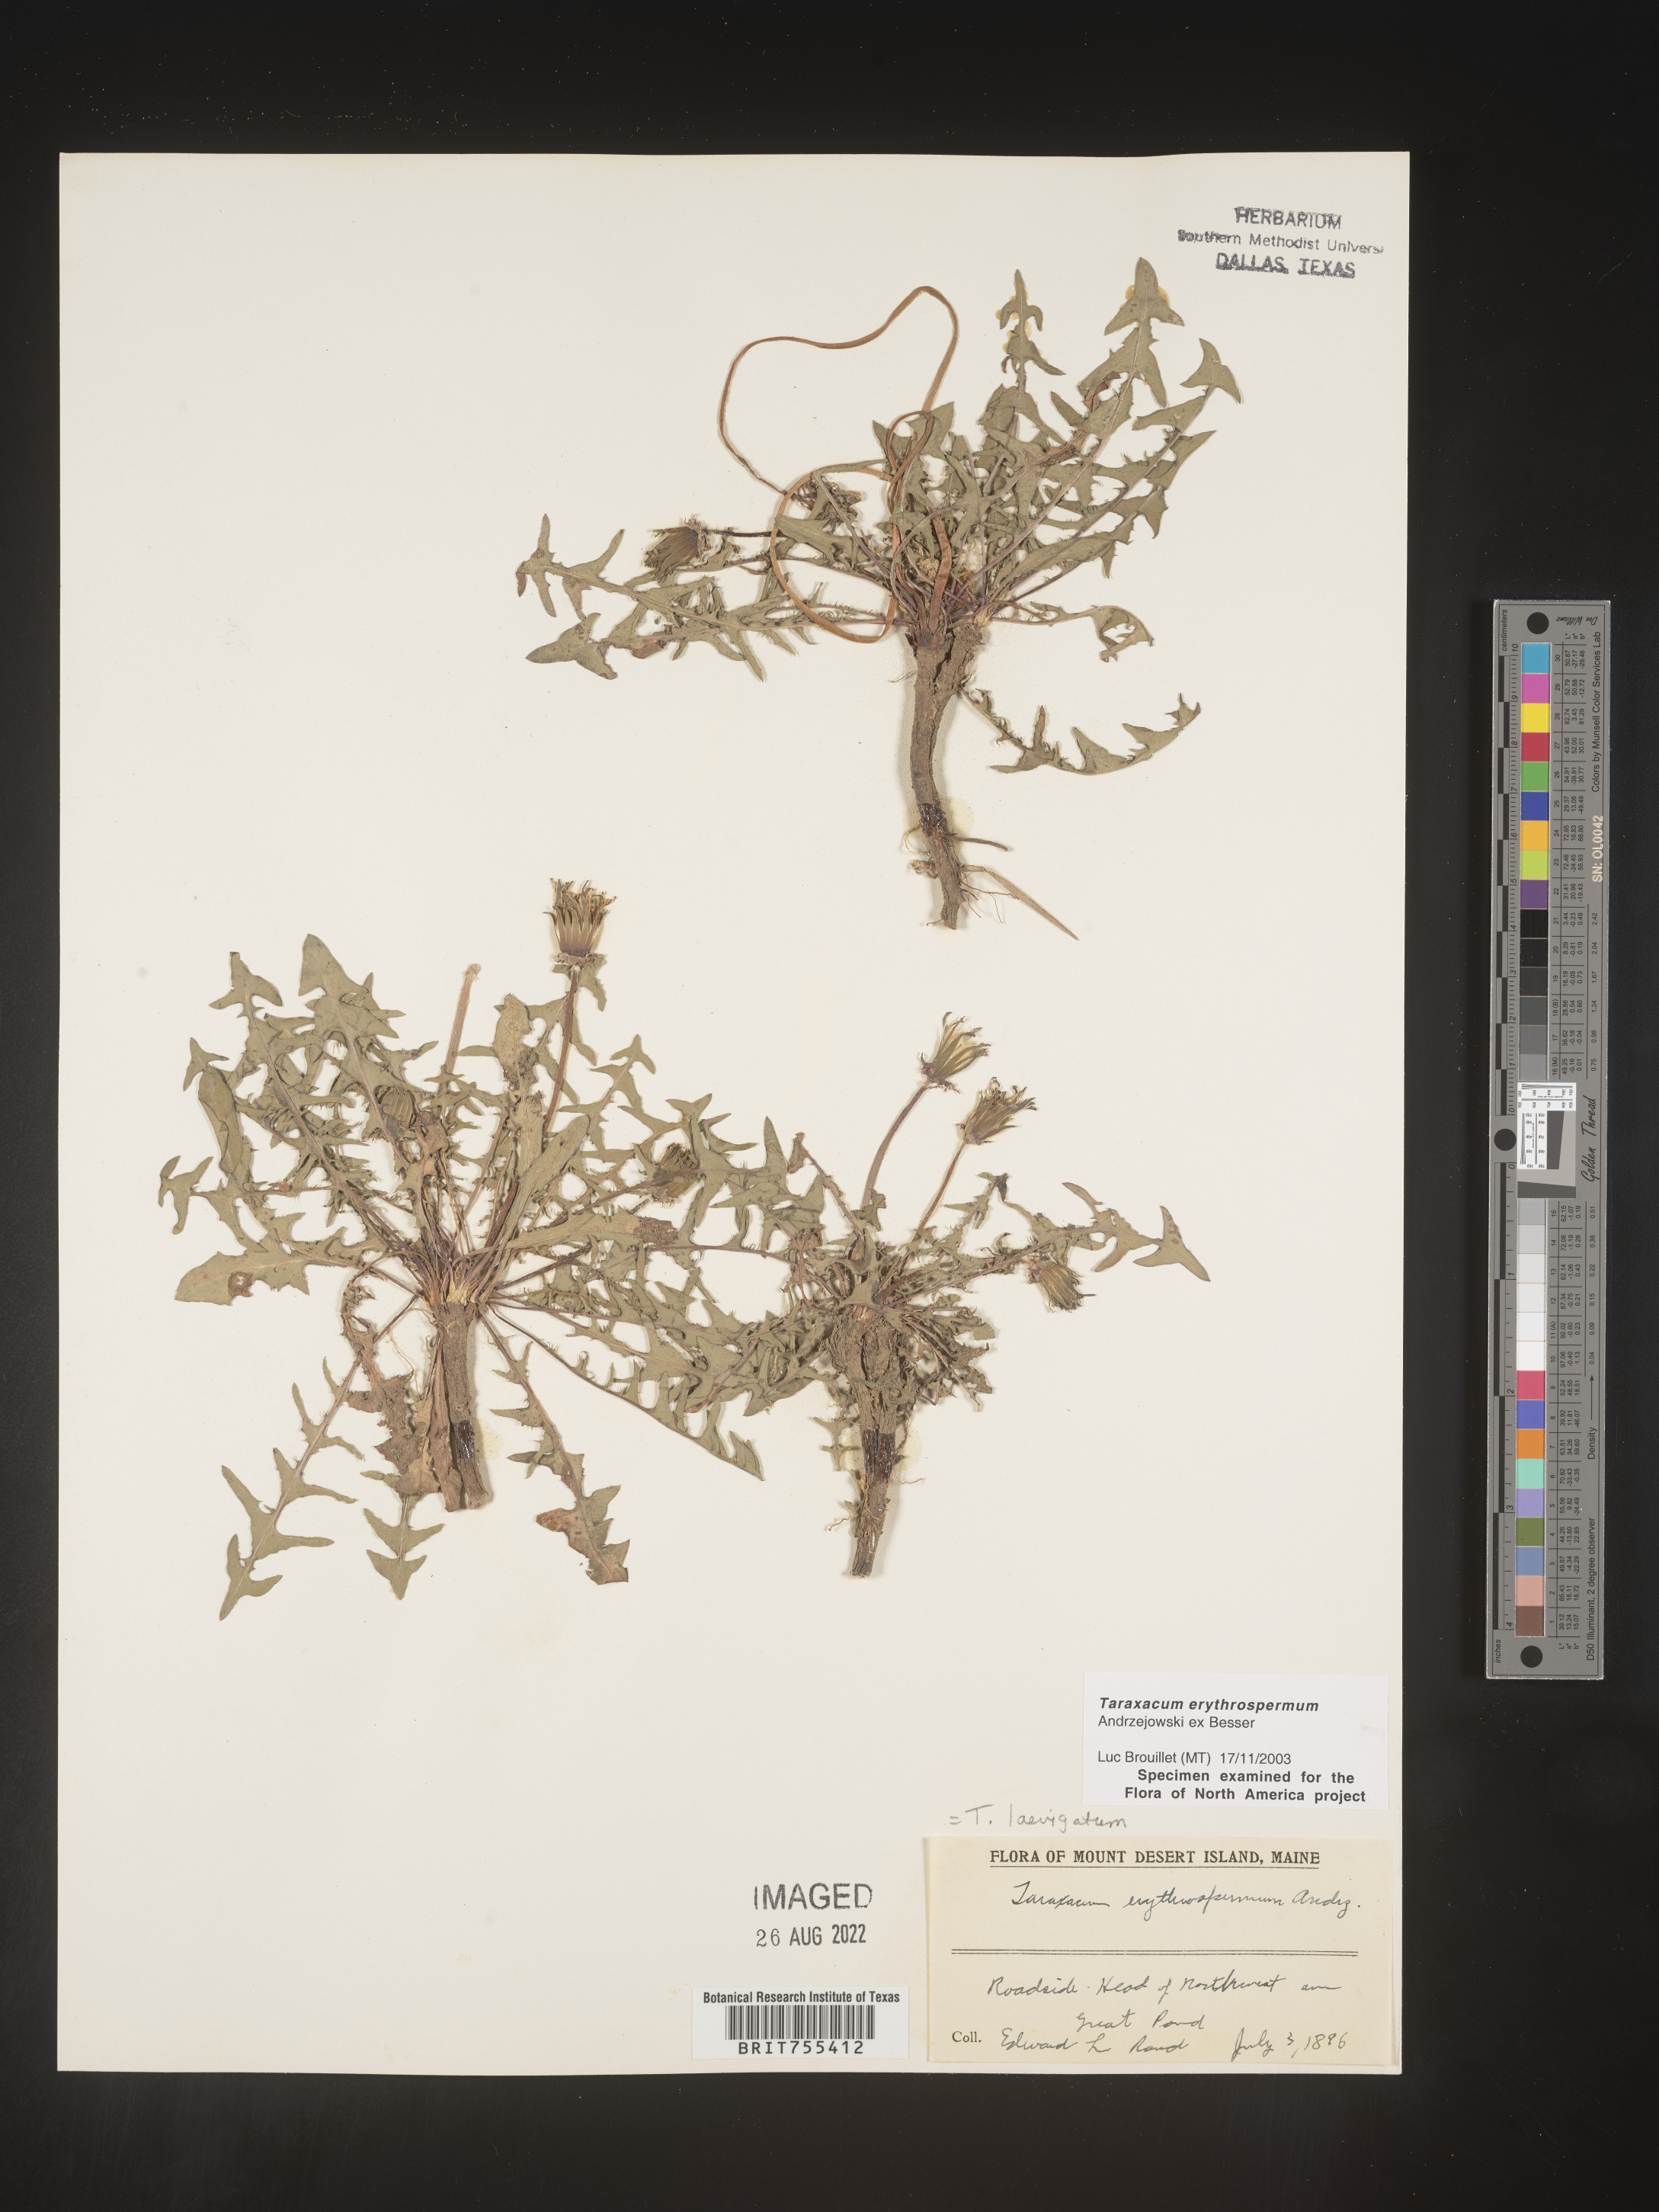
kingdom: Plantae
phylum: Tracheophyta
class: Magnoliopsida
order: Asterales
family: Asteraceae
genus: Taraxacum
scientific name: Taraxacum erythrospermum
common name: Rock dandelion
